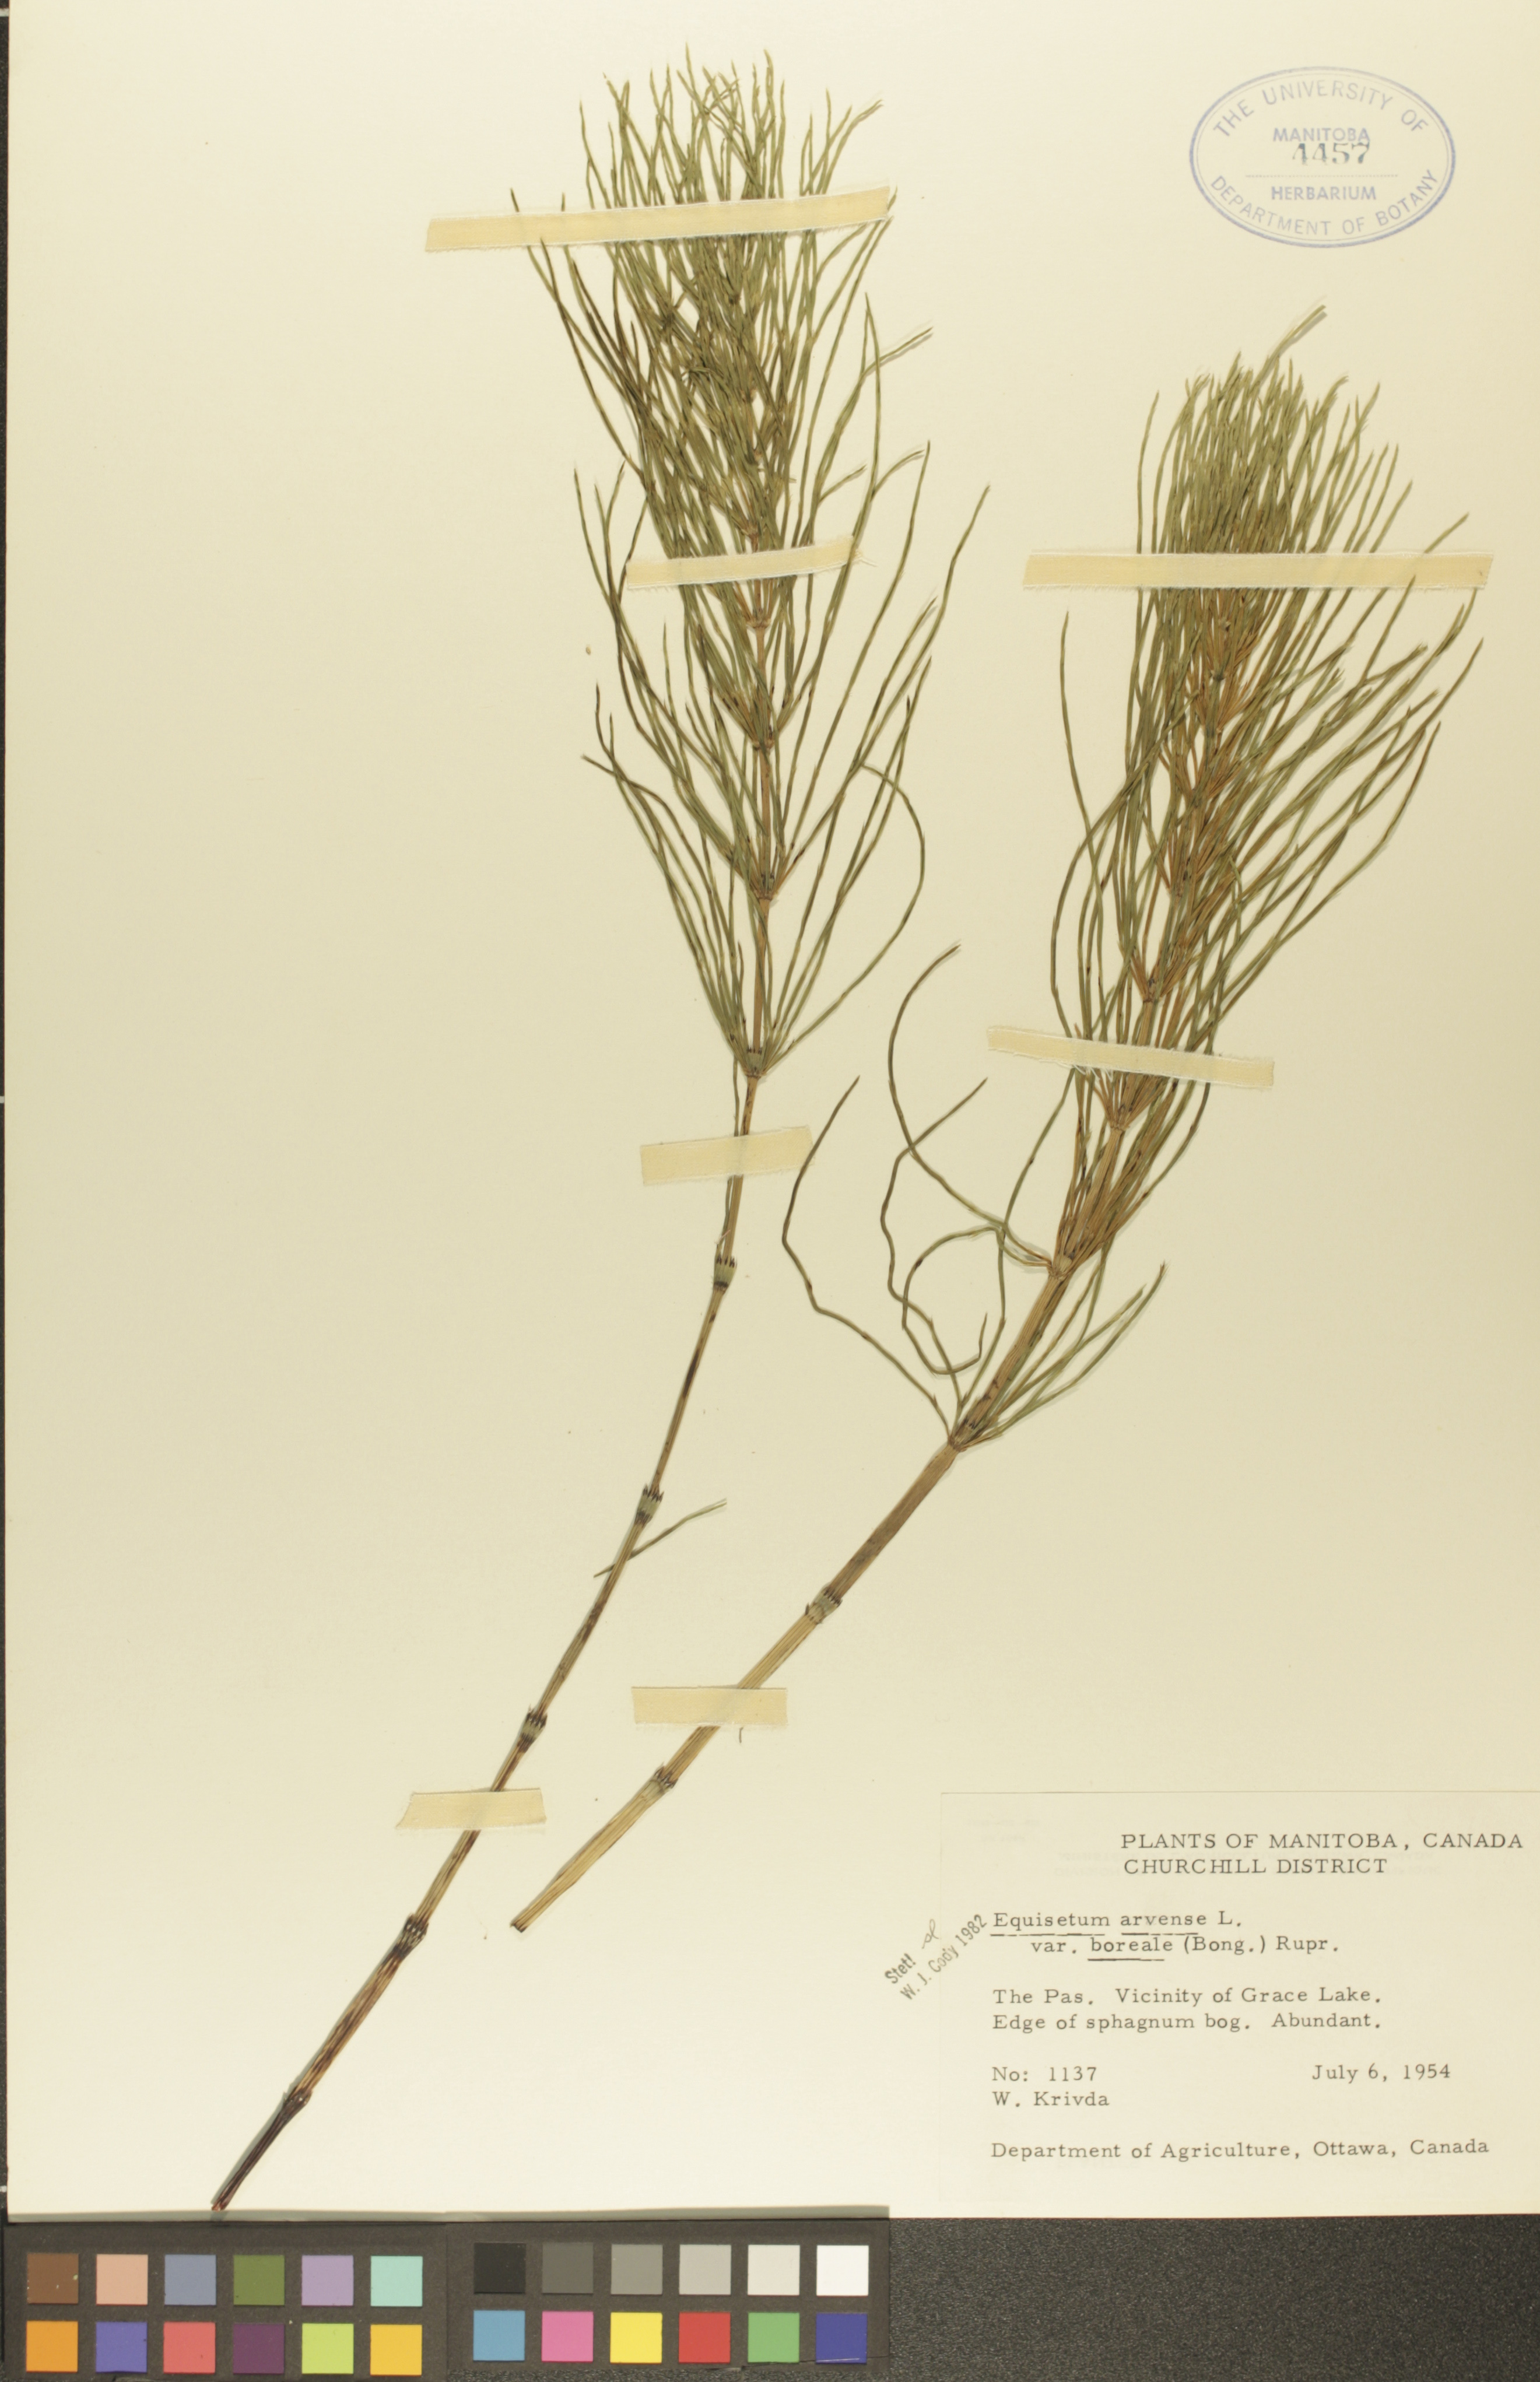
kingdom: Plantae
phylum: Tracheophyta
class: Polypodiopsida
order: Equisetales
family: Equisetaceae
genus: Equisetum
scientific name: Equisetum arvense
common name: Field horsetail
